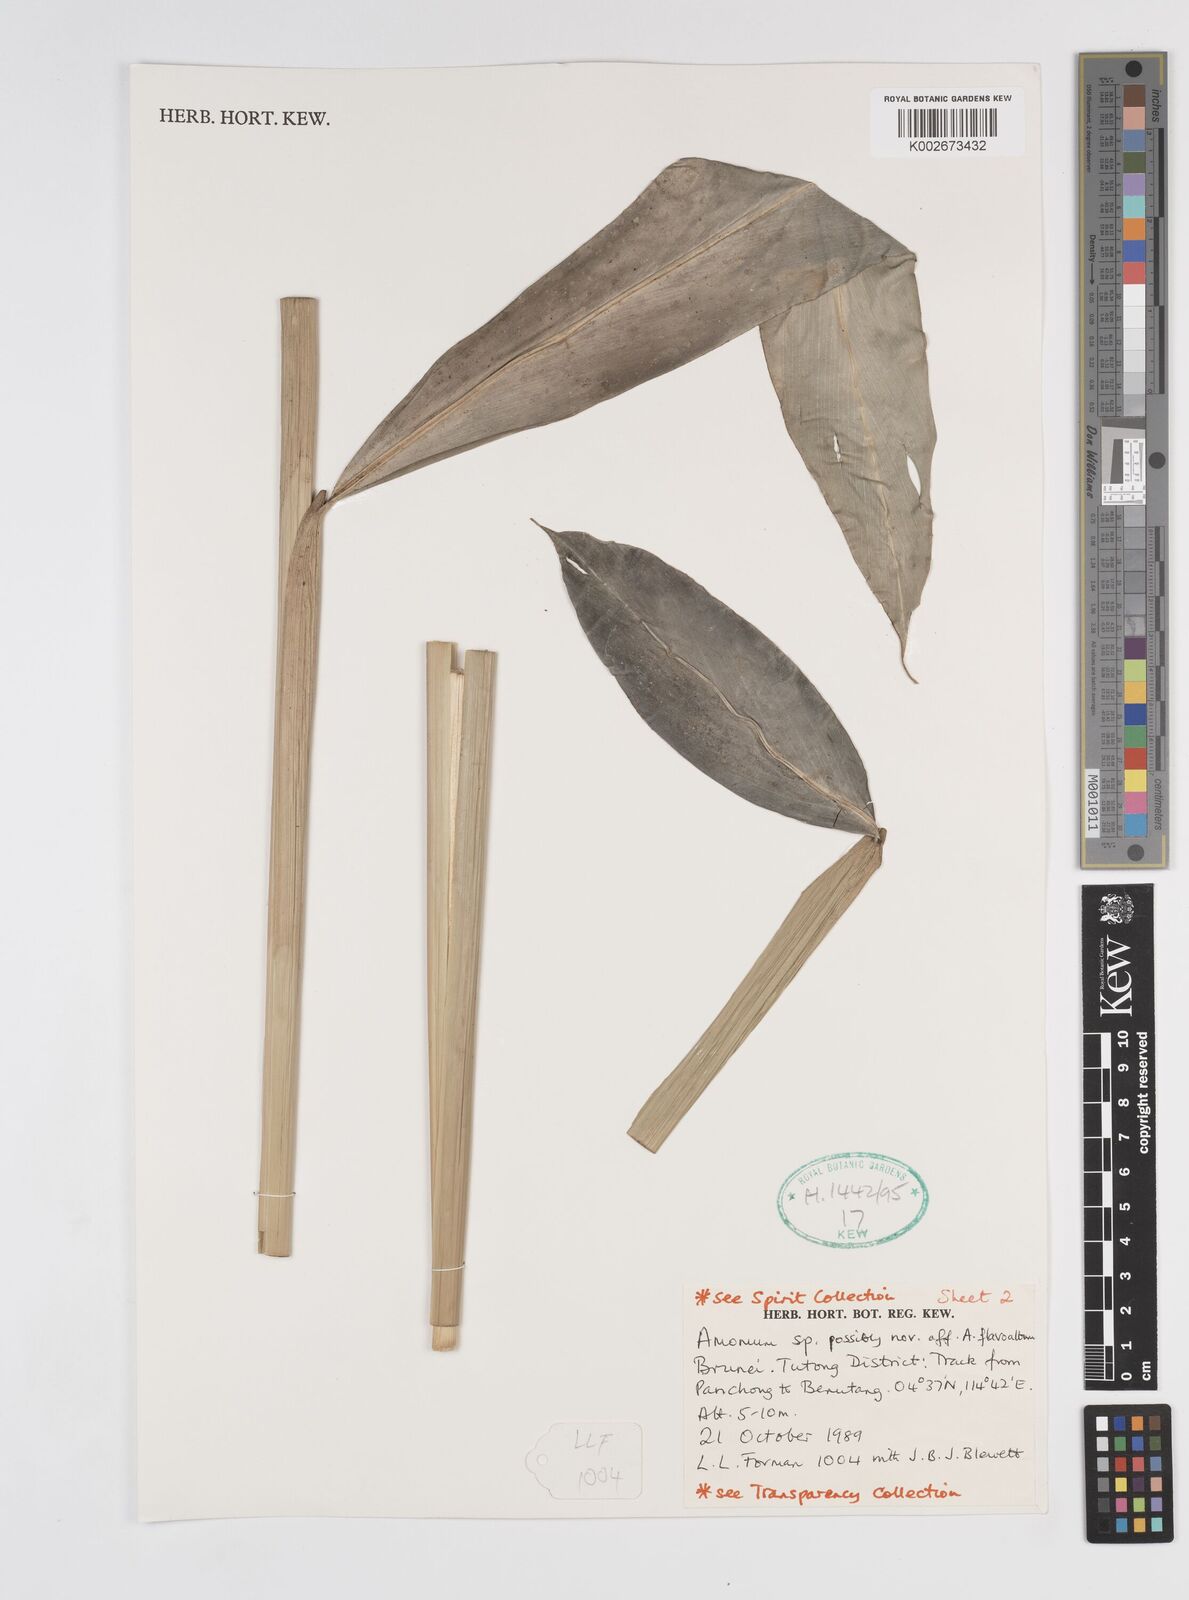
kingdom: Plantae
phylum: Tracheophyta
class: Liliopsida
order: Zingiberales
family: Zingiberaceae
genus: Sundamomum
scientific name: Sundamomum flavoalbum
